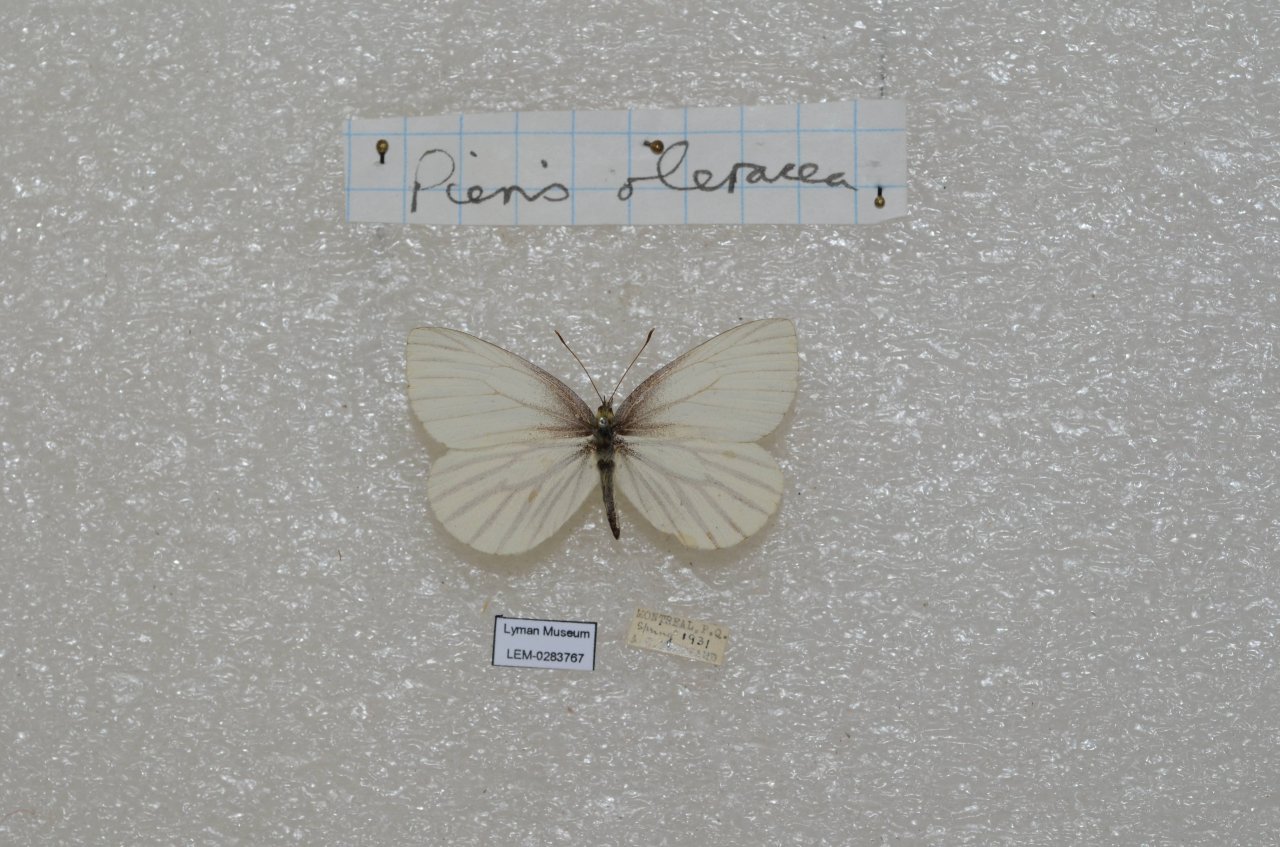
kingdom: Animalia
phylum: Arthropoda
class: Insecta
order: Lepidoptera
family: Pieridae
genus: Pieris
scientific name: Pieris oleracea
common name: Mustard White
